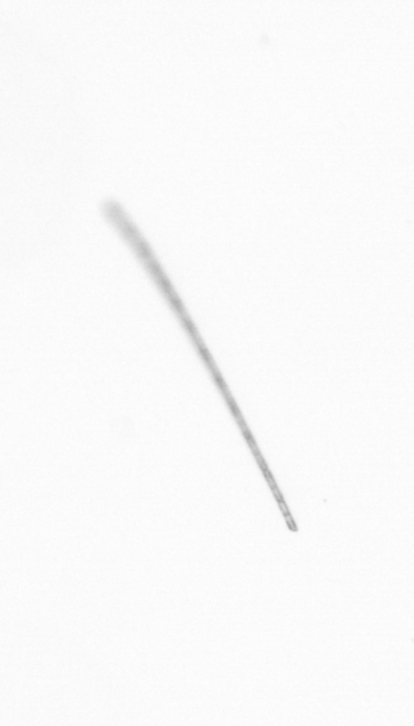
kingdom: Chromista
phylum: Ochrophyta
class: Bacillariophyceae
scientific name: Bacillariophyceae
